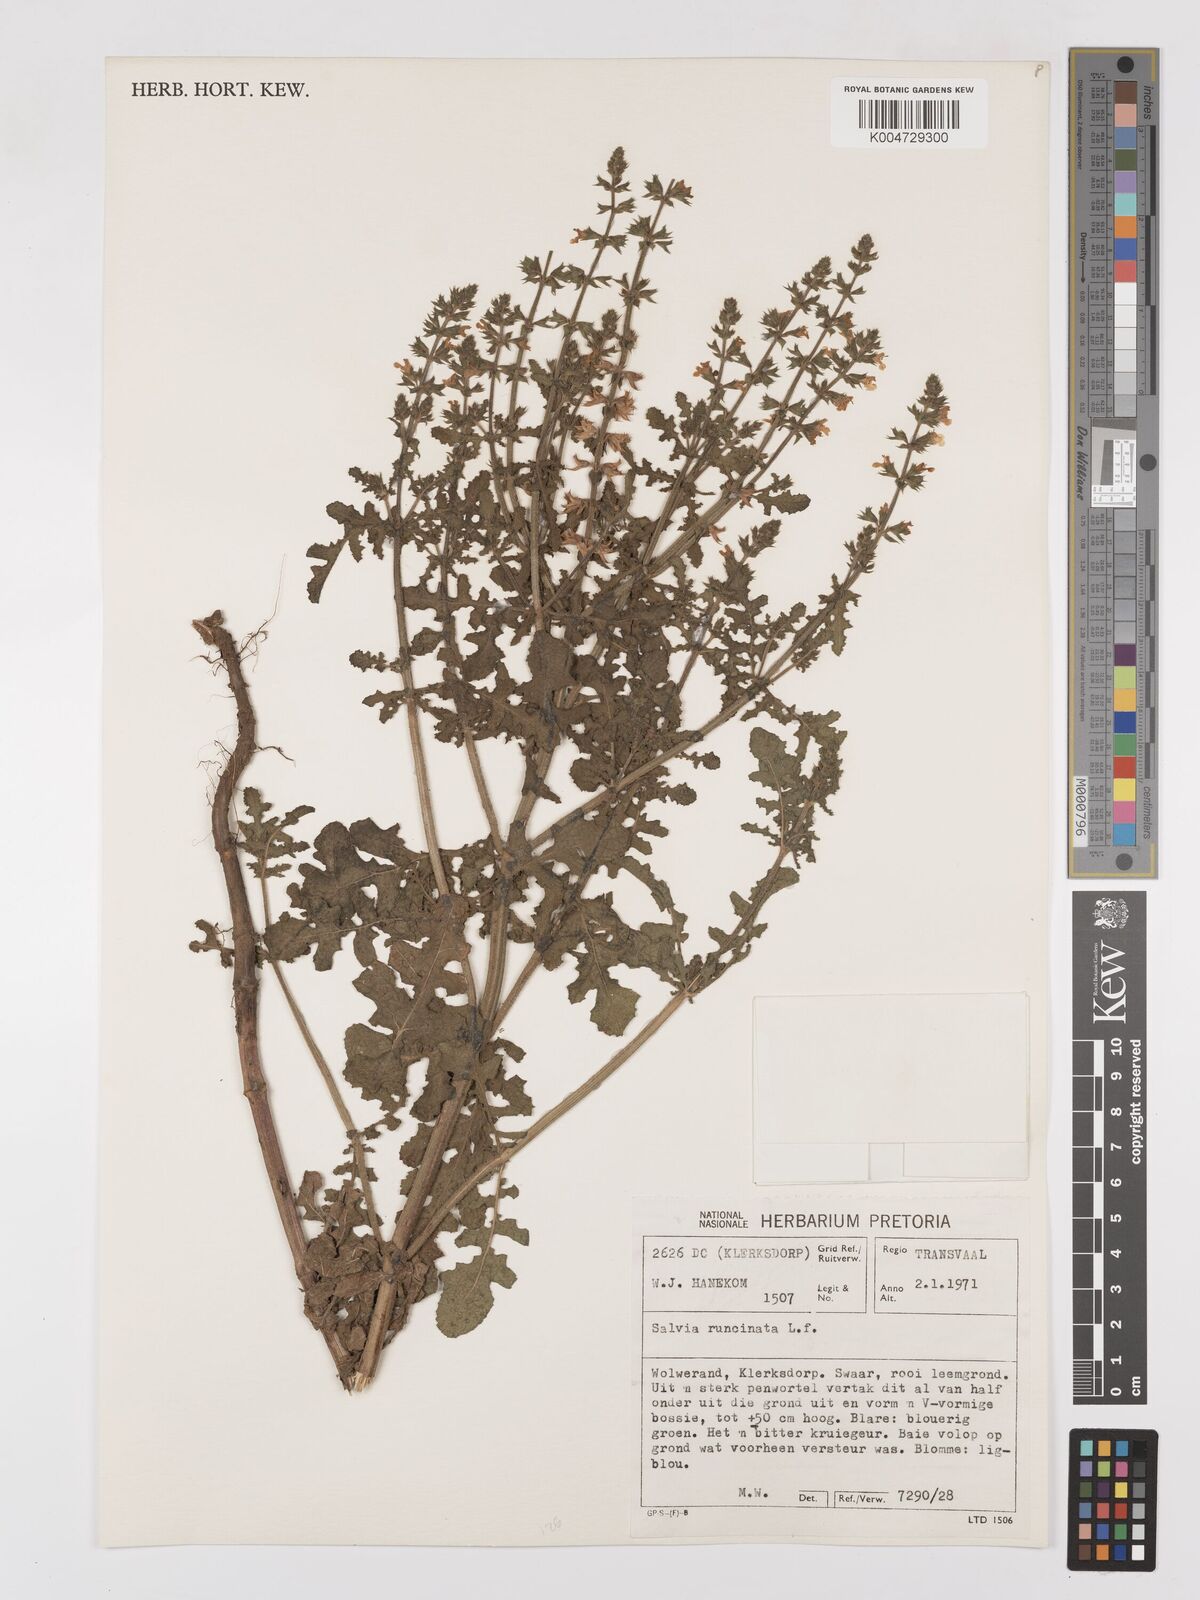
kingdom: Plantae
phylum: Tracheophyta
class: Magnoliopsida
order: Lamiales
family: Lamiaceae
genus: Salvia
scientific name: Salvia runcinata
